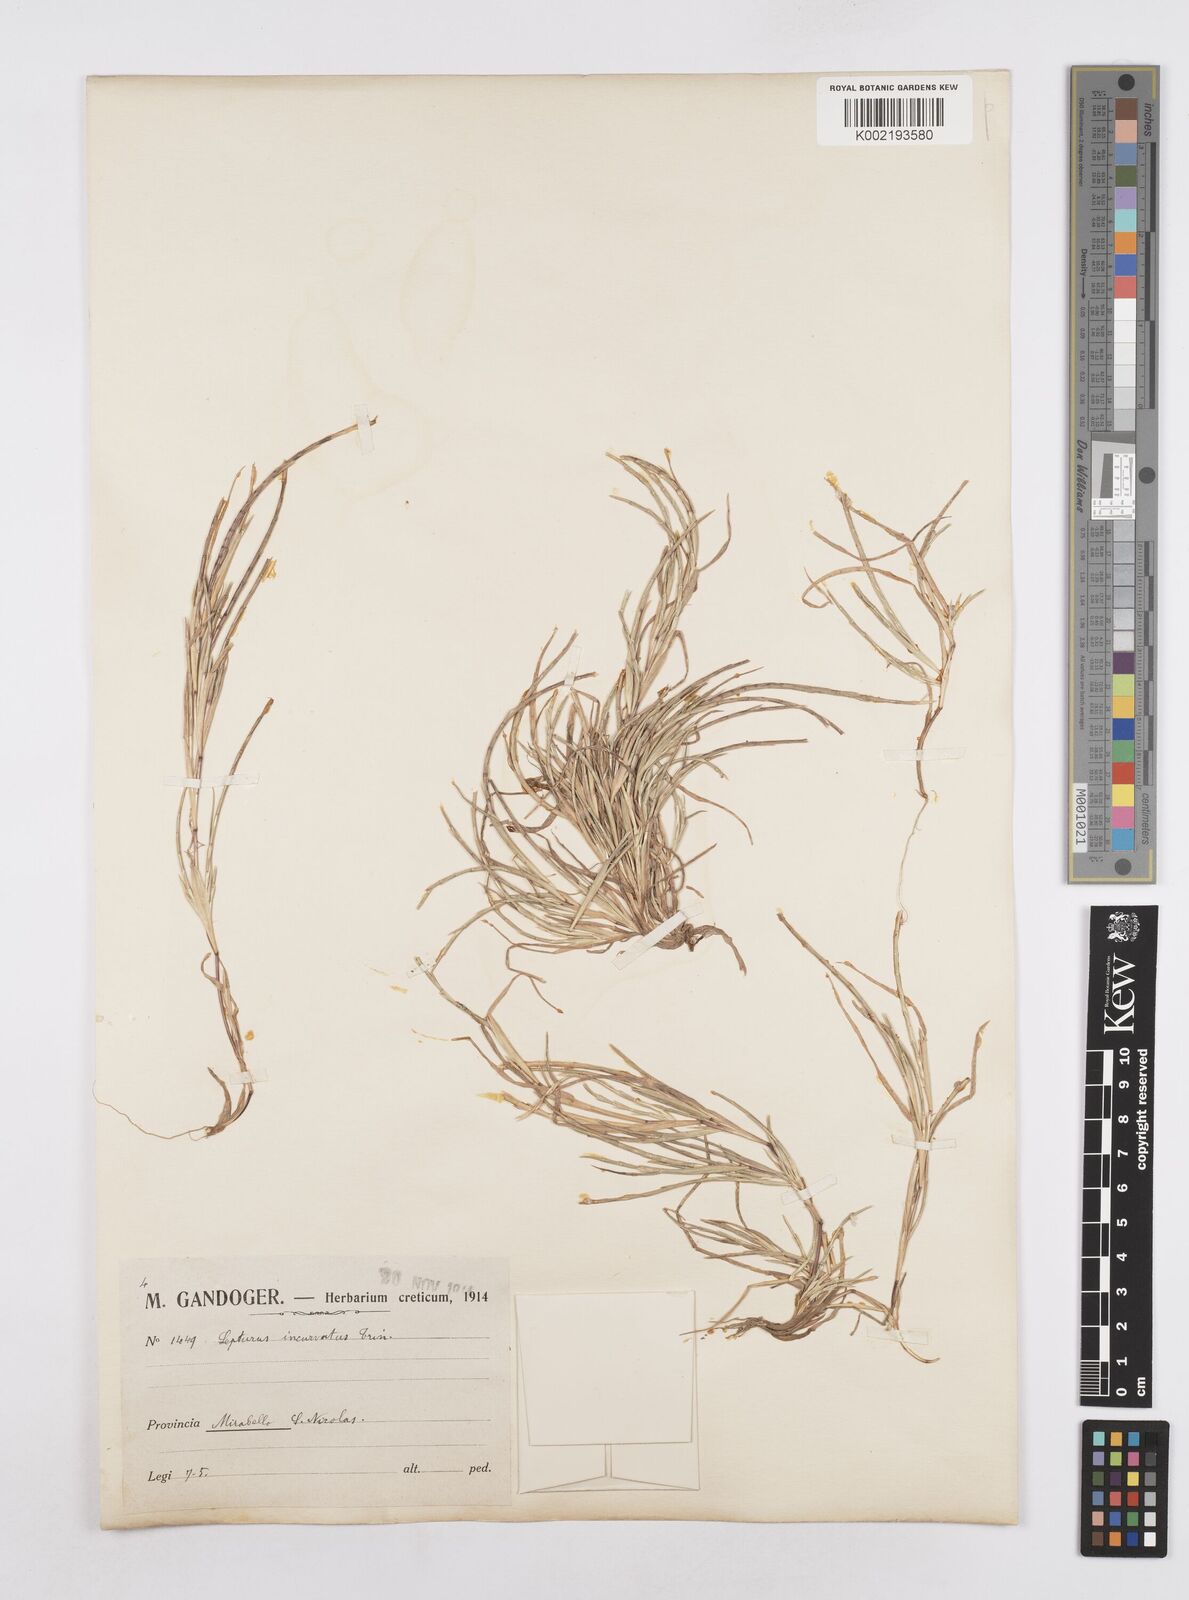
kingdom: Plantae
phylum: Tracheophyta
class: Liliopsida
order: Poales
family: Poaceae
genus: Parapholis
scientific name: Parapholis incurva
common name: Curved sicklegrass
